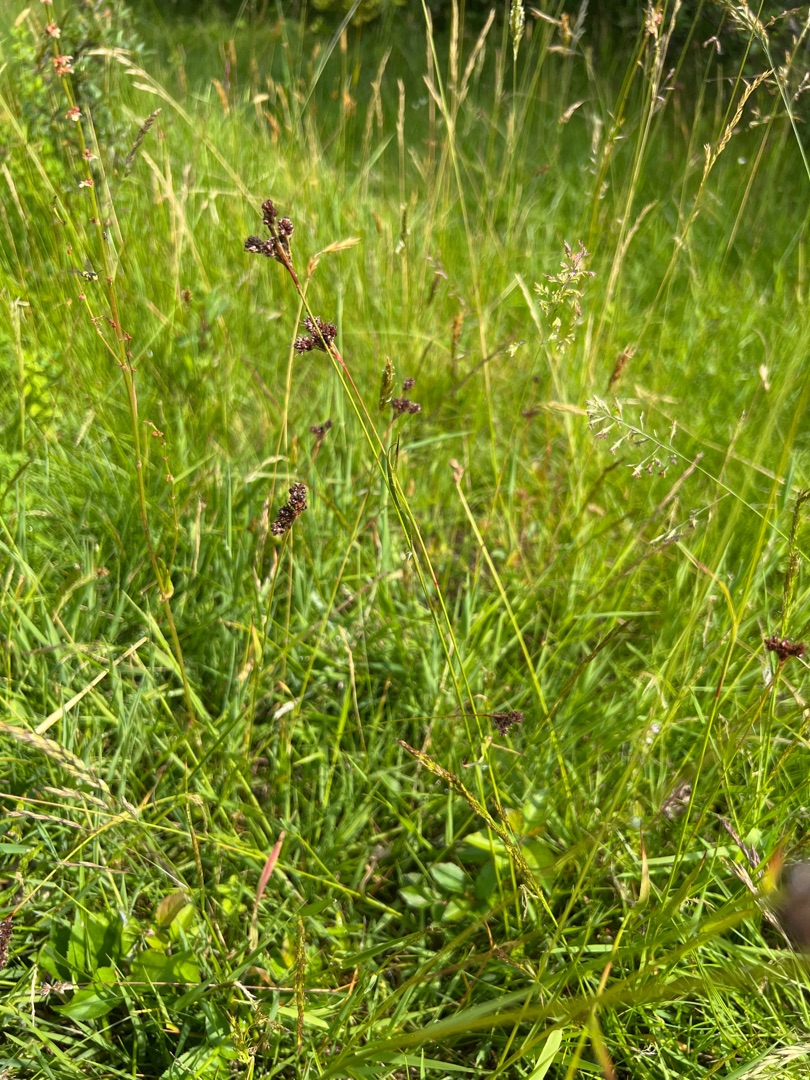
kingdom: Plantae
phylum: Tracheophyta
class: Liliopsida
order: Poales
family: Juncaceae
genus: Luzula
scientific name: Luzula multiflora
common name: Mangeblomstret frytle
